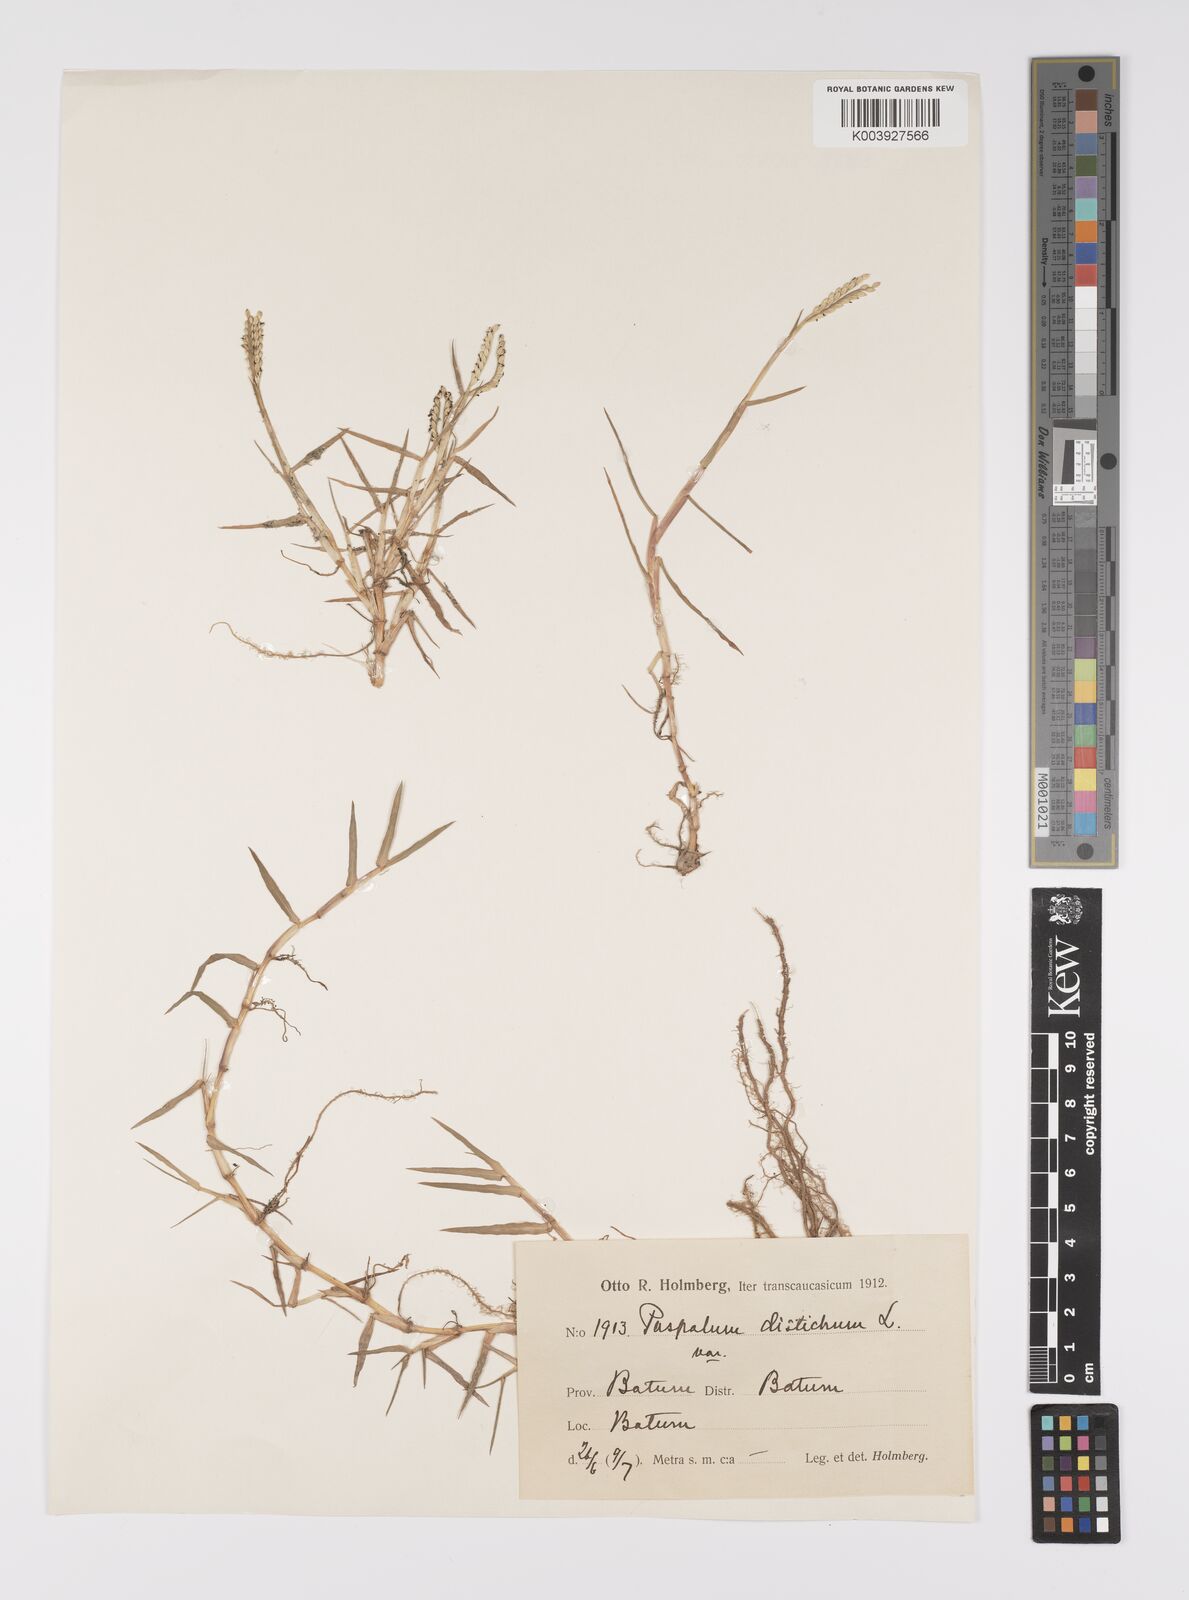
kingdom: Plantae
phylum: Tracheophyta
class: Liliopsida
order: Poales
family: Poaceae
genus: Paspalum
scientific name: Paspalum distichum
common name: Knotgrass
